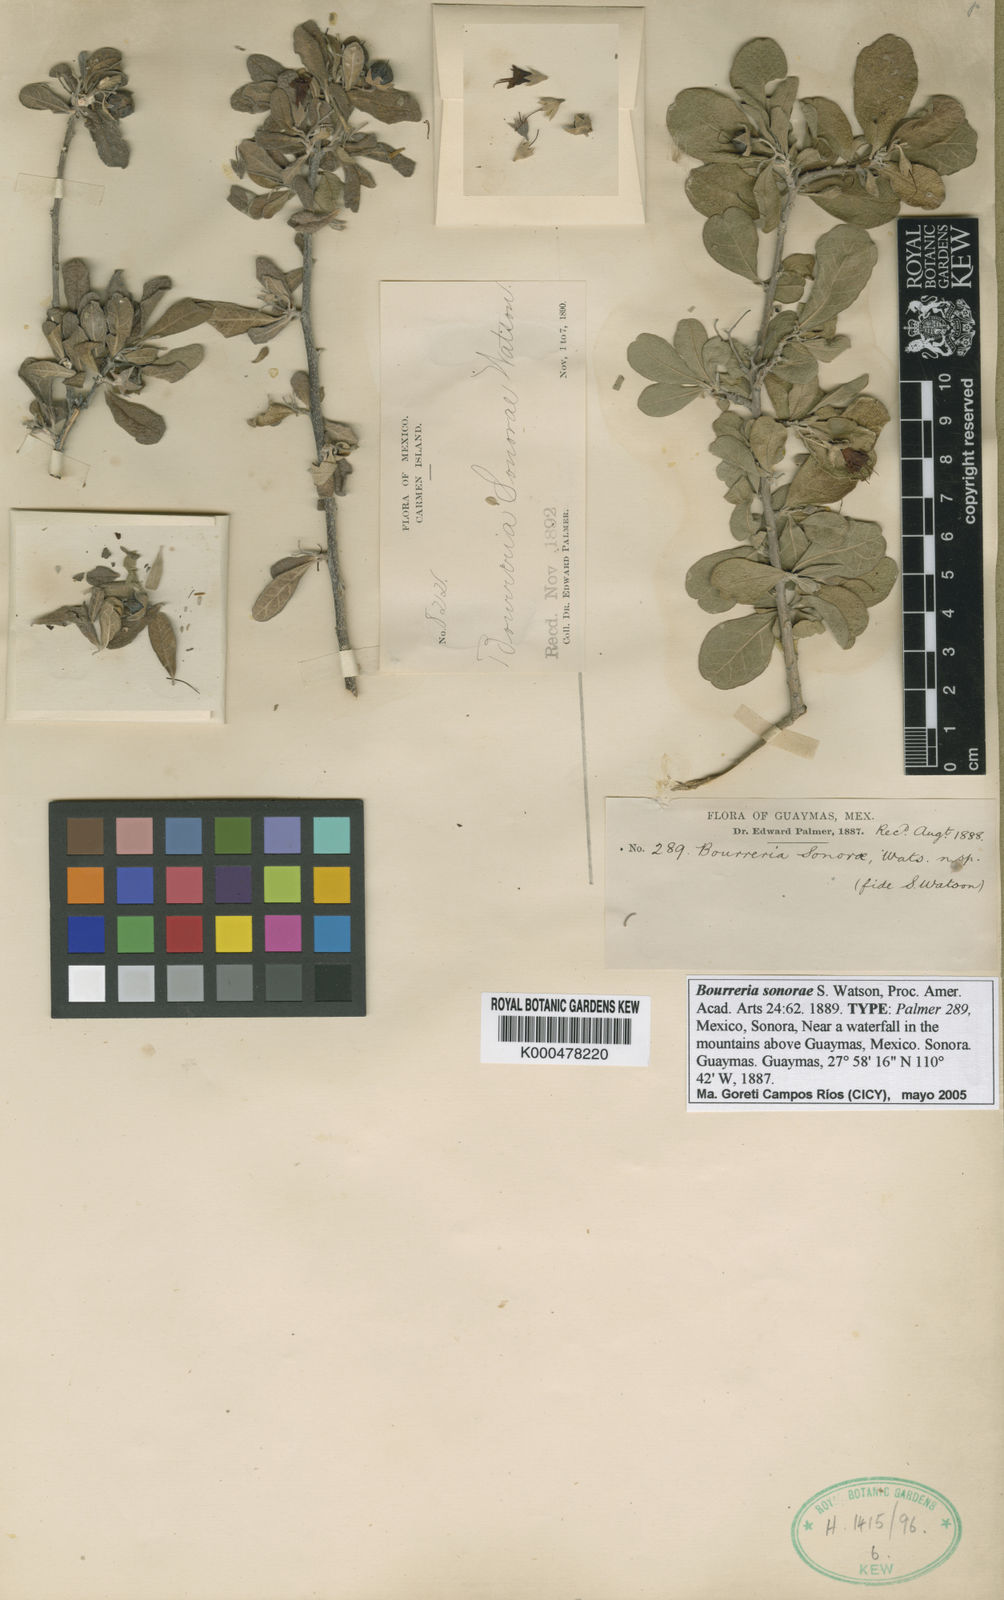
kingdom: Plantae
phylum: Tracheophyta
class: Magnoliopsida
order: Boraginales
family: Ehretiaceae
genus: Bourreria
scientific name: Bourreria sonorae
